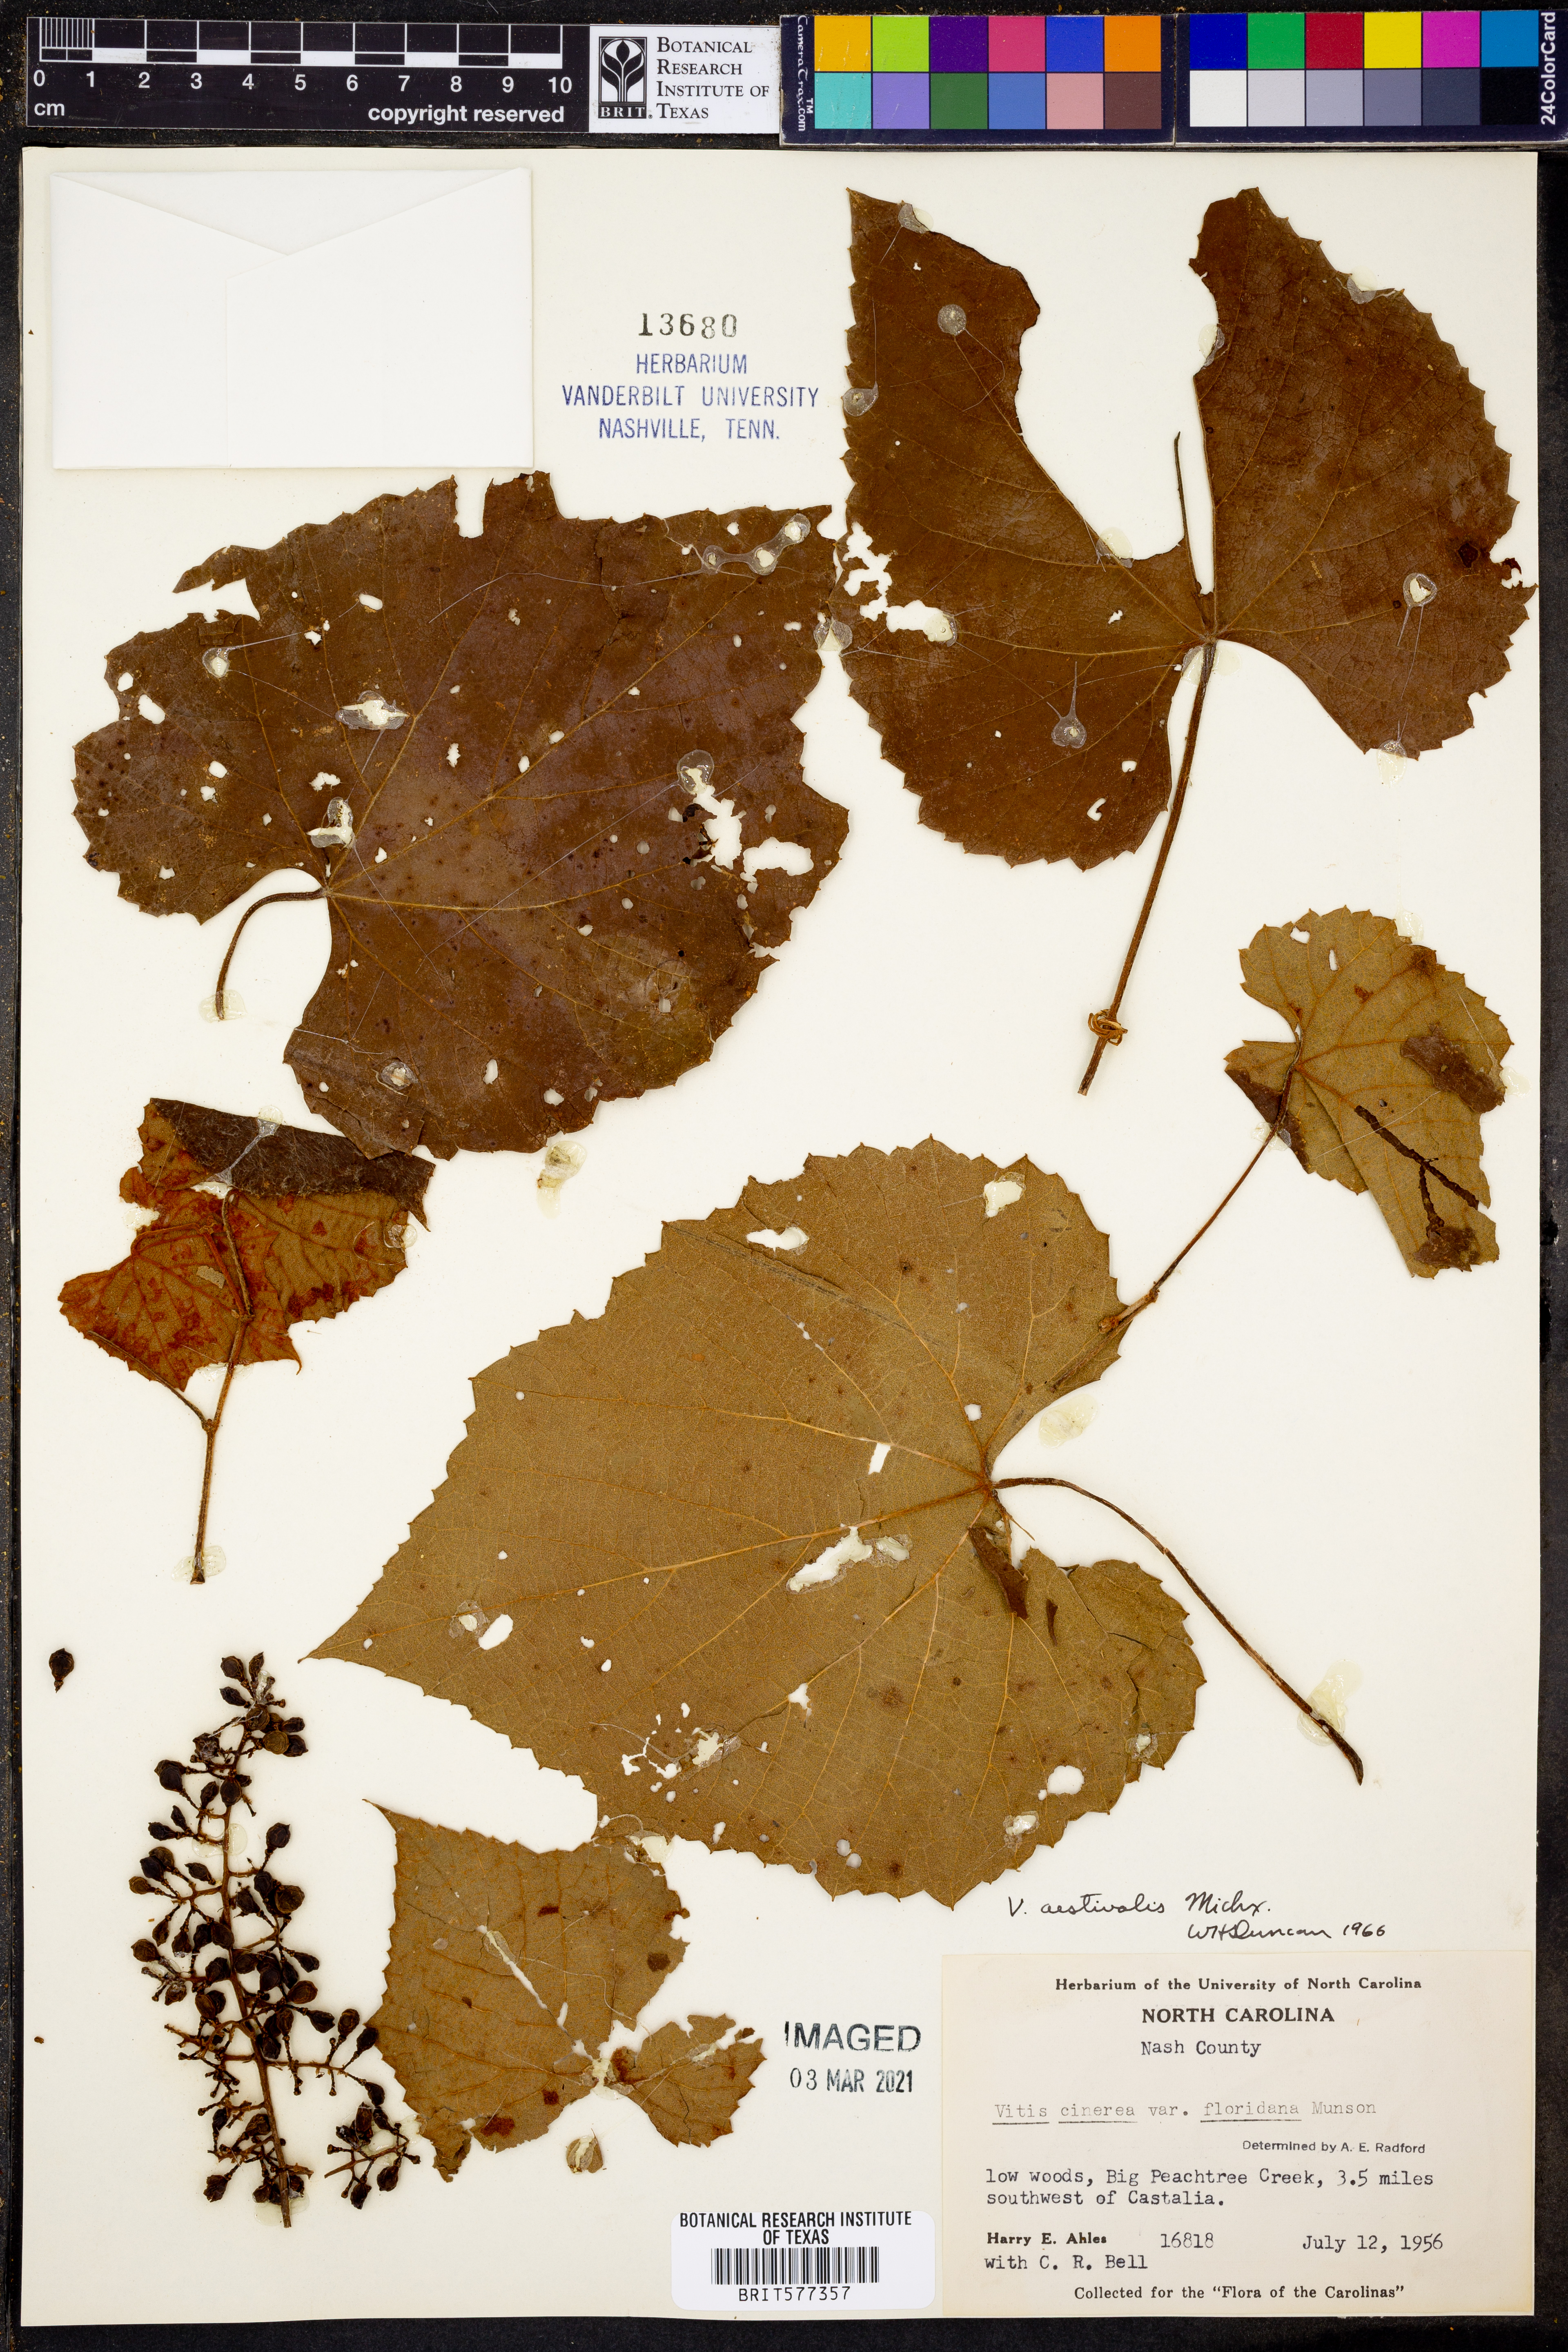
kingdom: Plantae
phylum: Tracheophyta
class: Magnoliopsida
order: Vitales
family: Vitaceae
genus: Vitis
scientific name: Vitis aestivalis
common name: Pigeon grape
